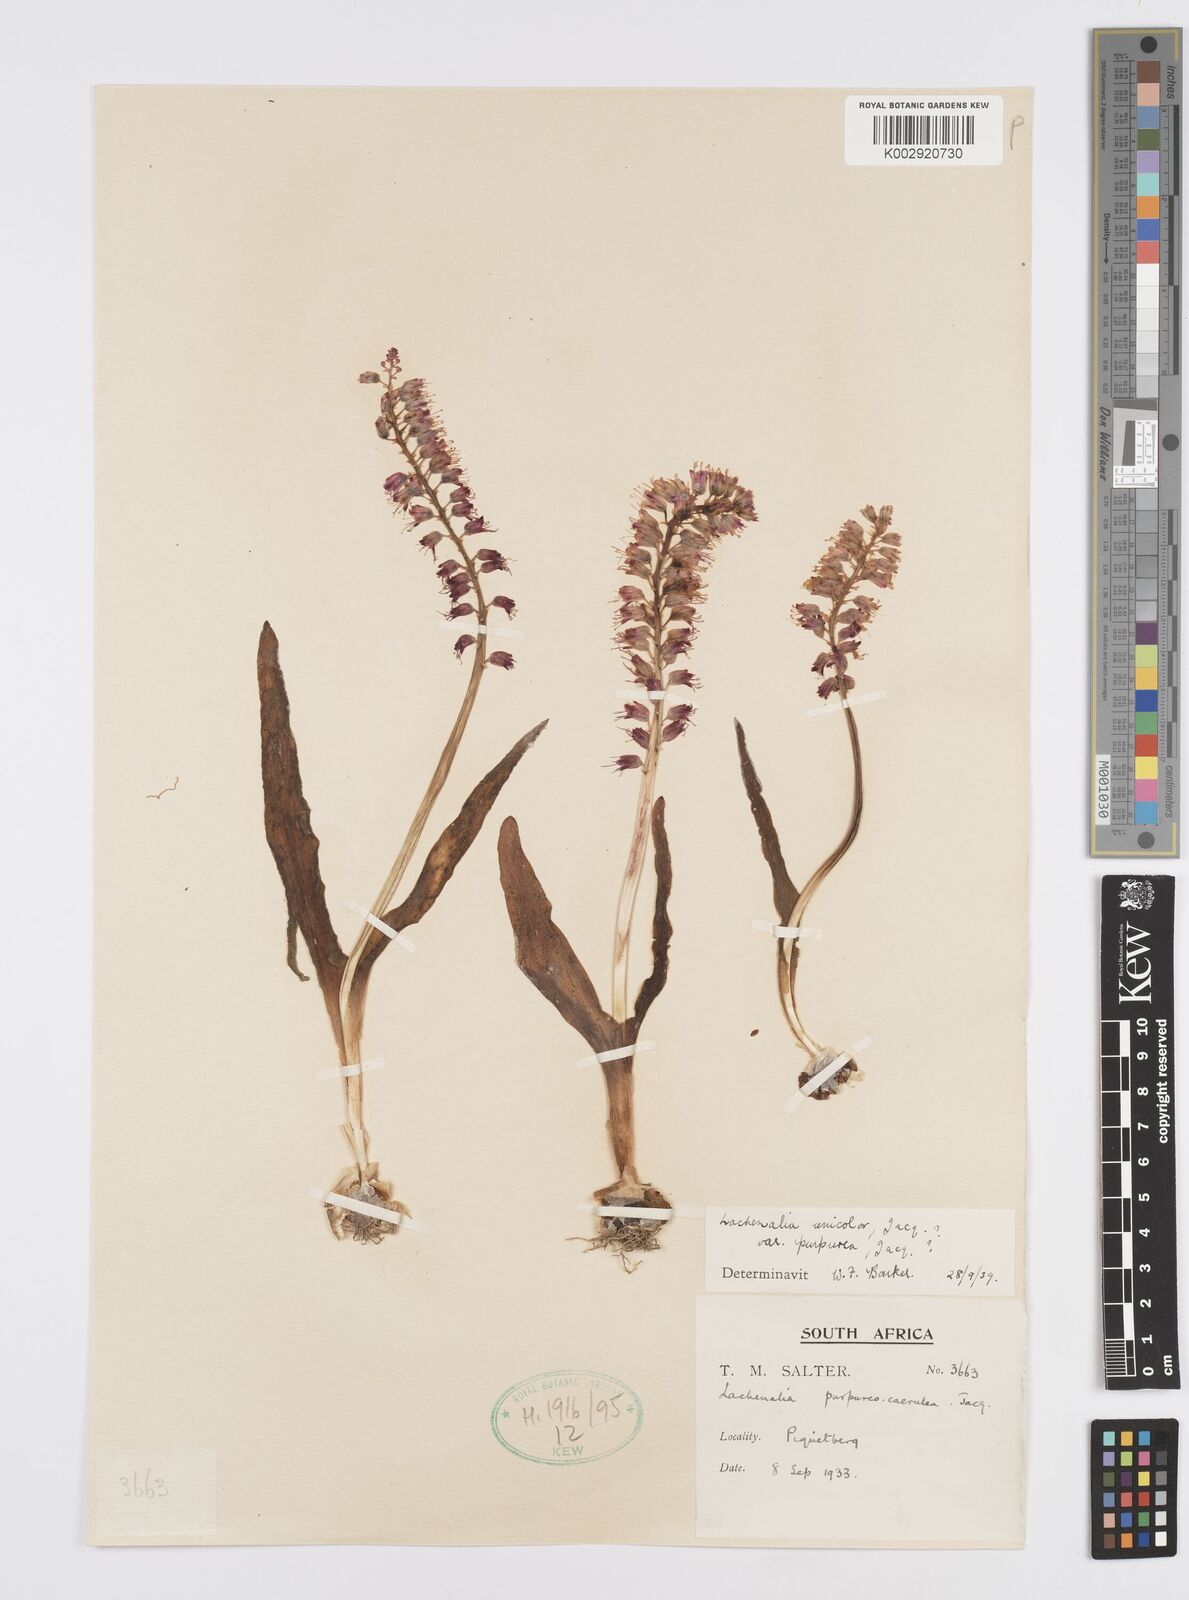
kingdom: Plantae
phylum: Tracheophyta
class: Liliopsida
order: Asparagales
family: Asparagaceae
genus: Lachenalia
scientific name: Lachenalia pallida
